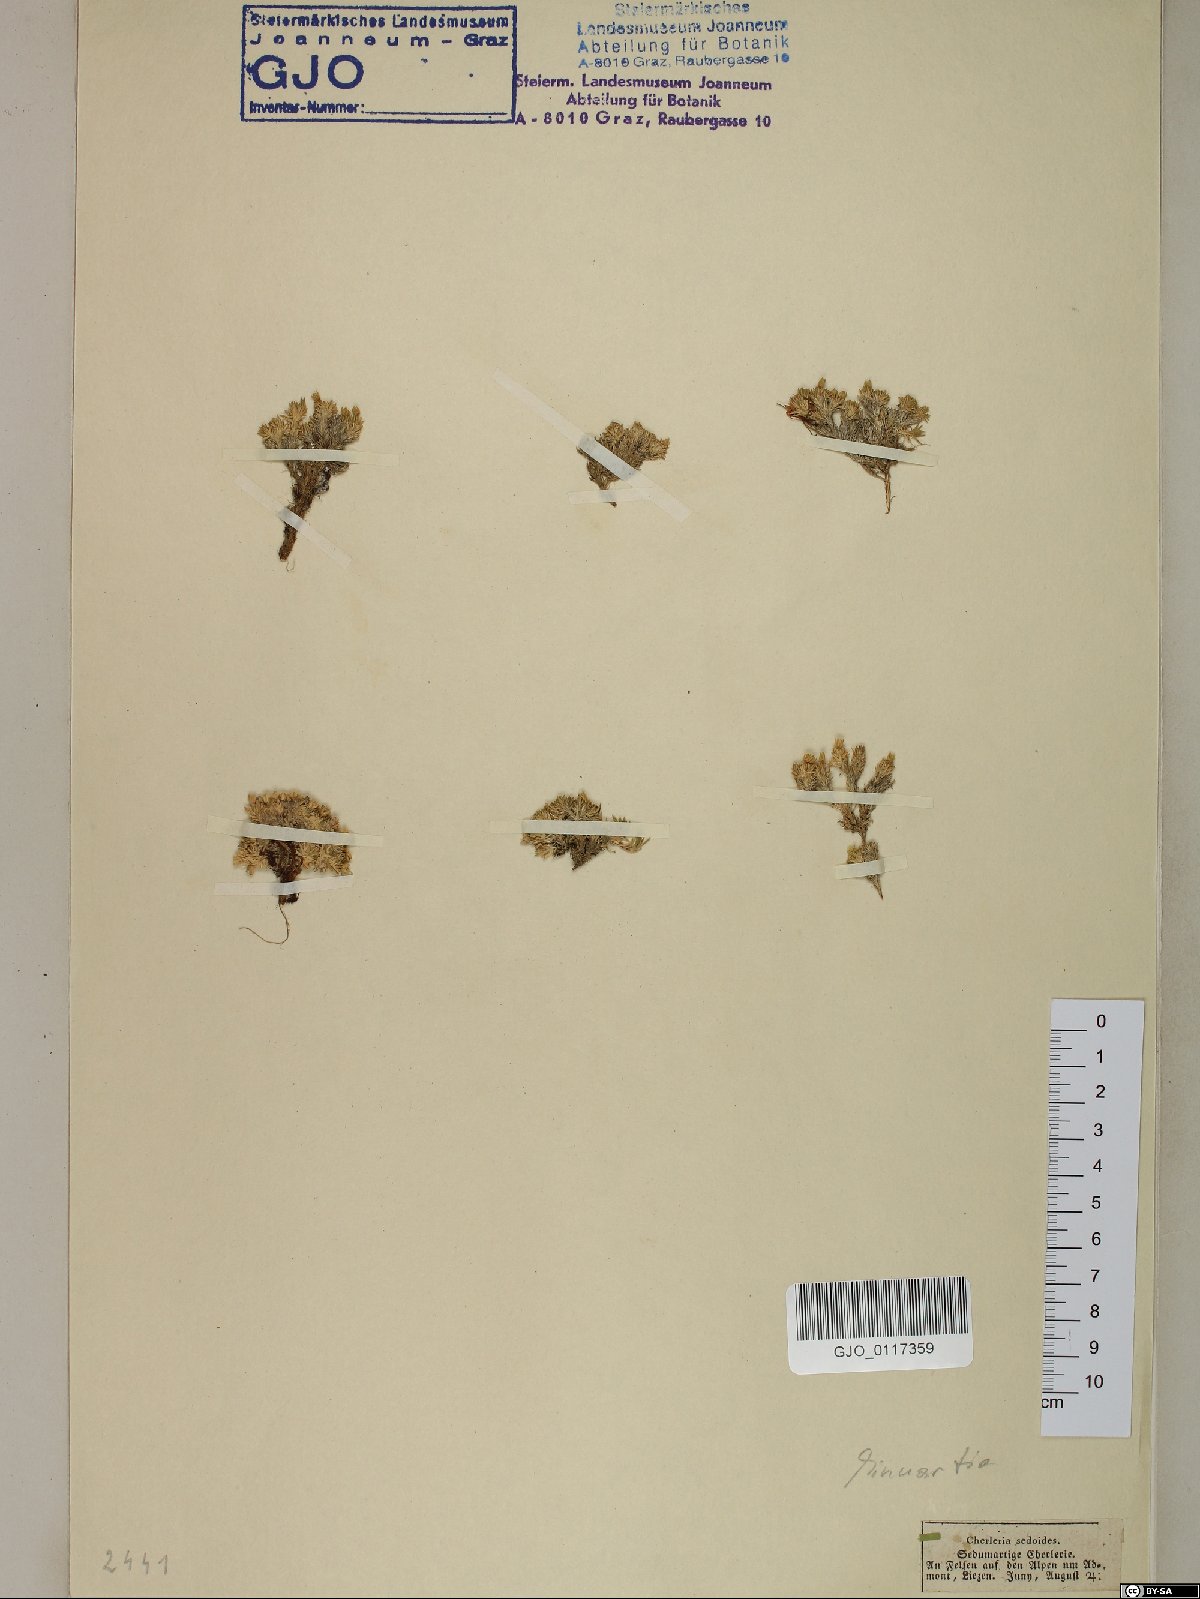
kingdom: Plantae
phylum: Tracheophyta
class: Magnoliopsida
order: Caryophyllales
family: Caryophyllaceae
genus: Cherleria
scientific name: Cherleria sedoides
